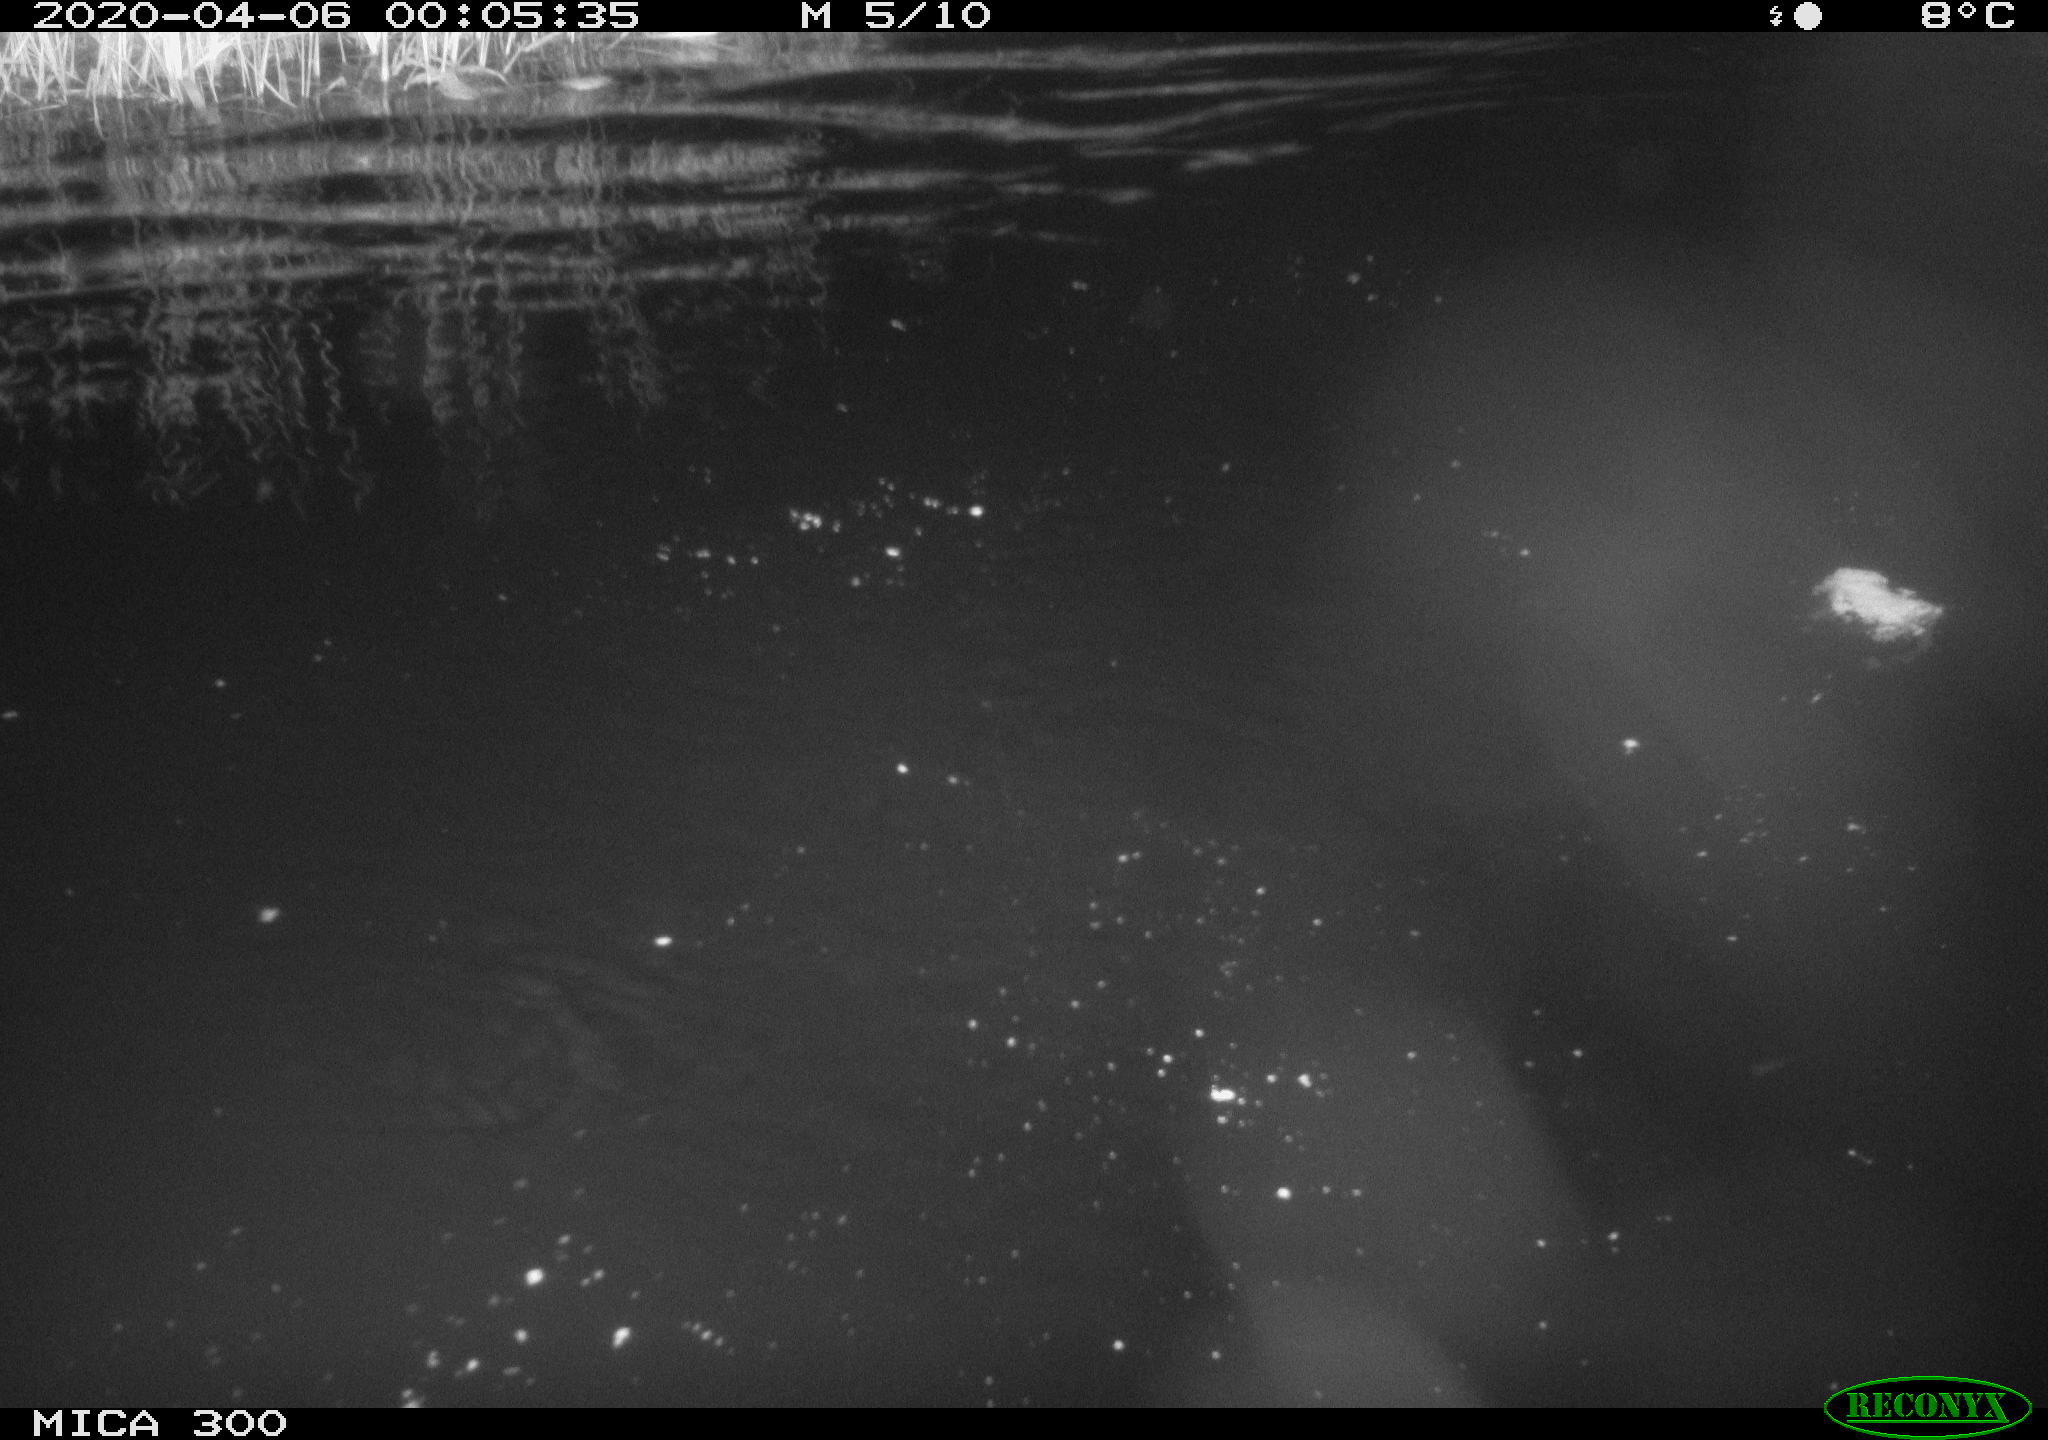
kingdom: Animalia
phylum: Chordata
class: Mammalia
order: Rodentia
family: Castoridae
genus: Castor
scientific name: Castor fiber
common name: Eurasian beaver
